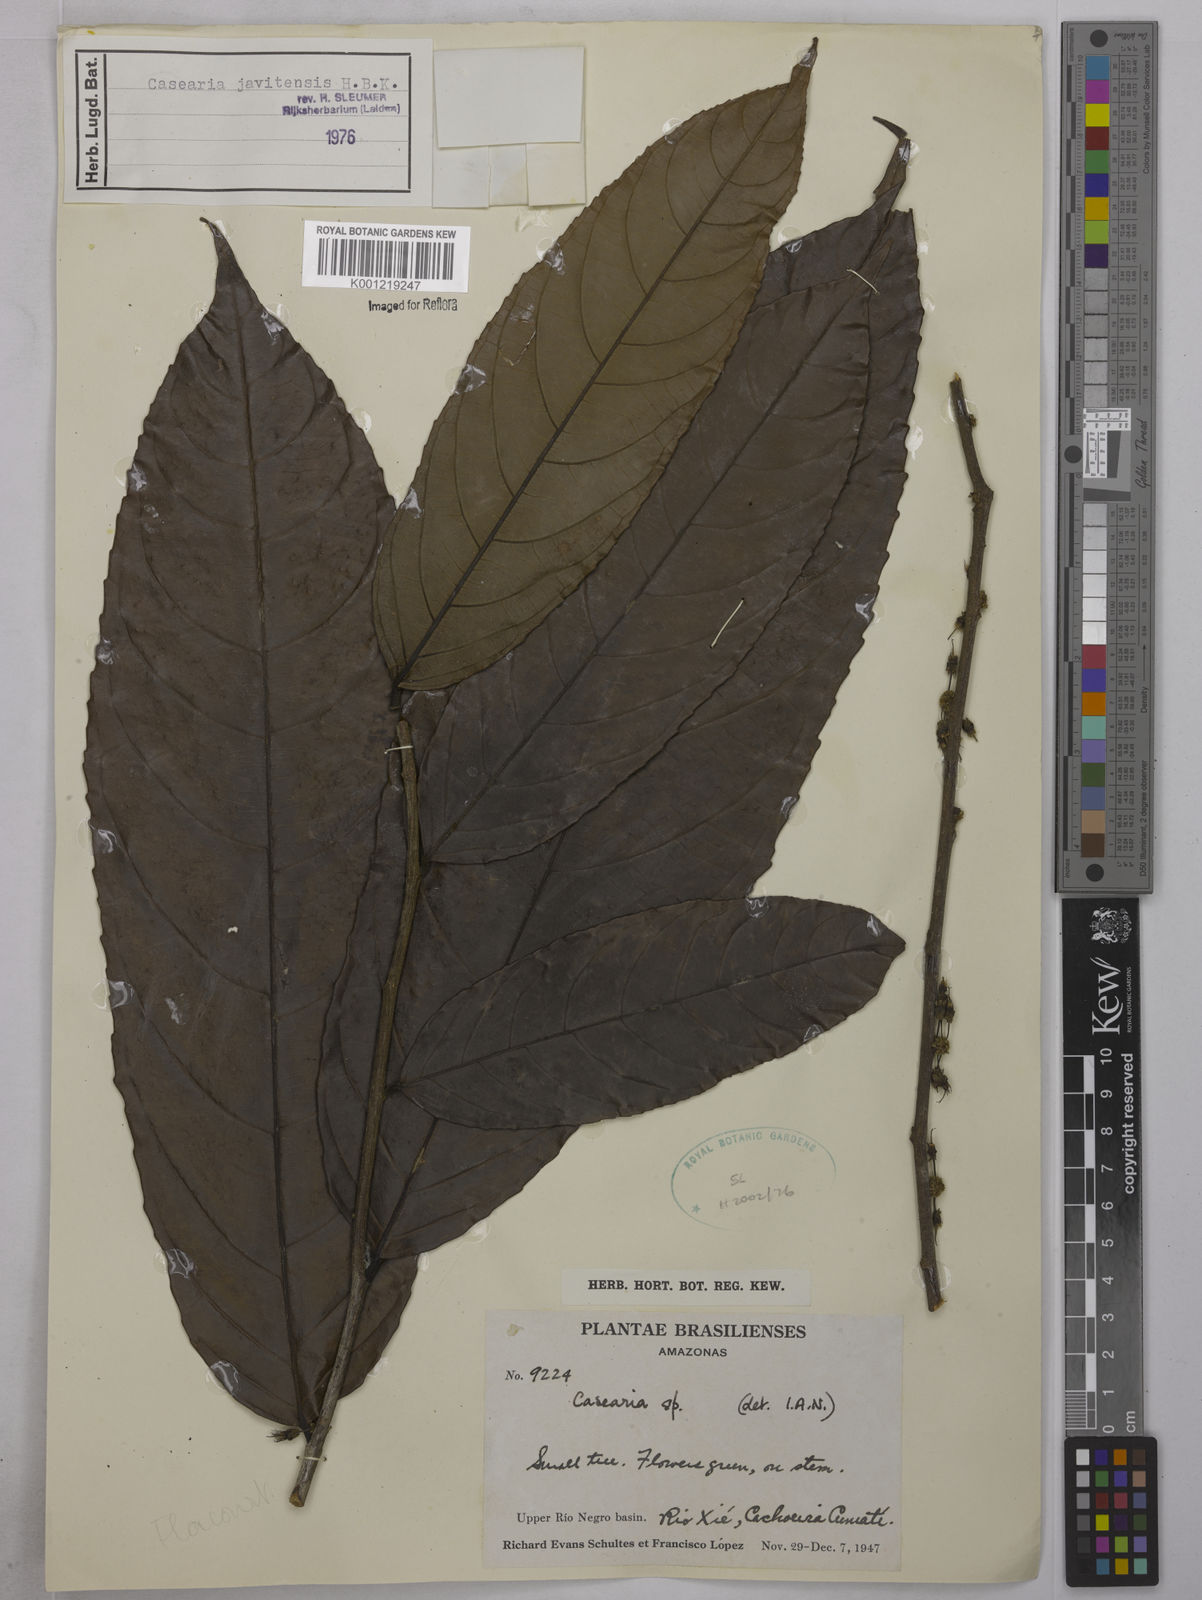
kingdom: Plantae
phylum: Tracheophyta
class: Magnoliopsida
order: Malpighiales
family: Salicaceae
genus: Piparea
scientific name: Piparea multiflora
